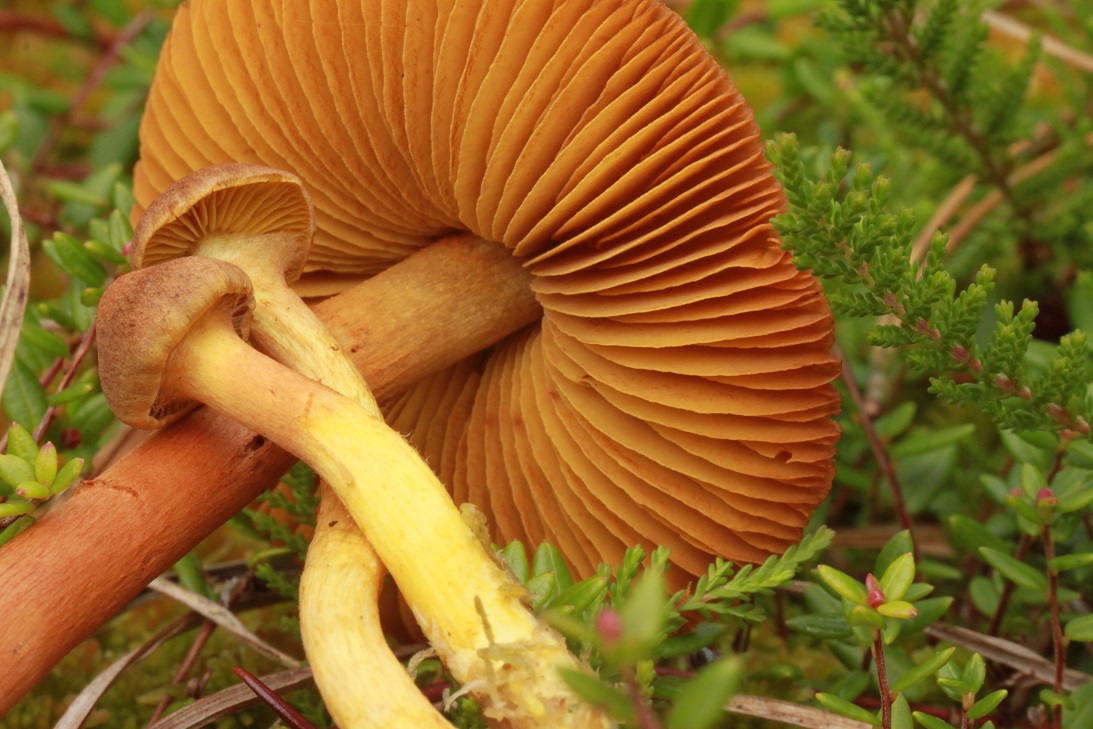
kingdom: Fungi
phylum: Basidiomycota
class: Agaricomycetes
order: Agaricales
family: Cortinariaceae
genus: Cortinarius
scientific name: Cortinarius
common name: gulbladet slørhat
